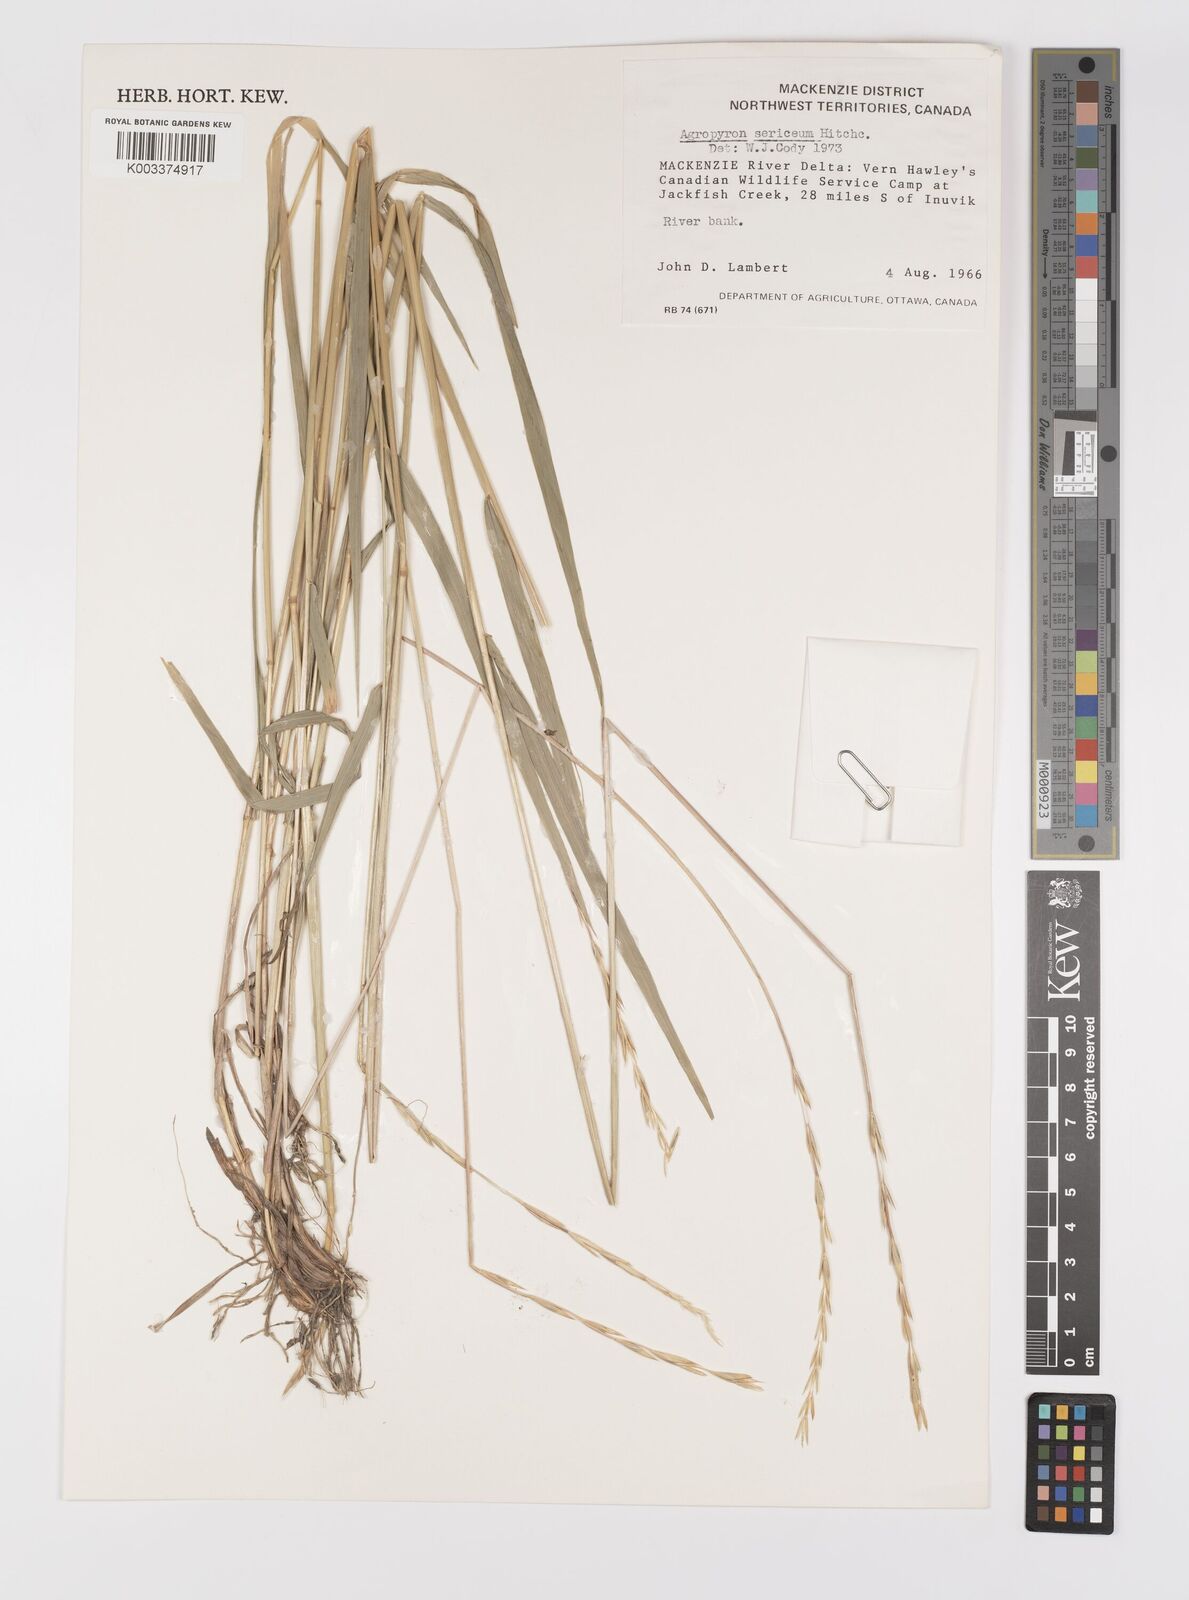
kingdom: Plantae
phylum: Tracheophyta
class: Liliopsida
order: Poales
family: Poaceae
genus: Elymus
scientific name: Elymus macrourus
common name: Northern wheatgrass
